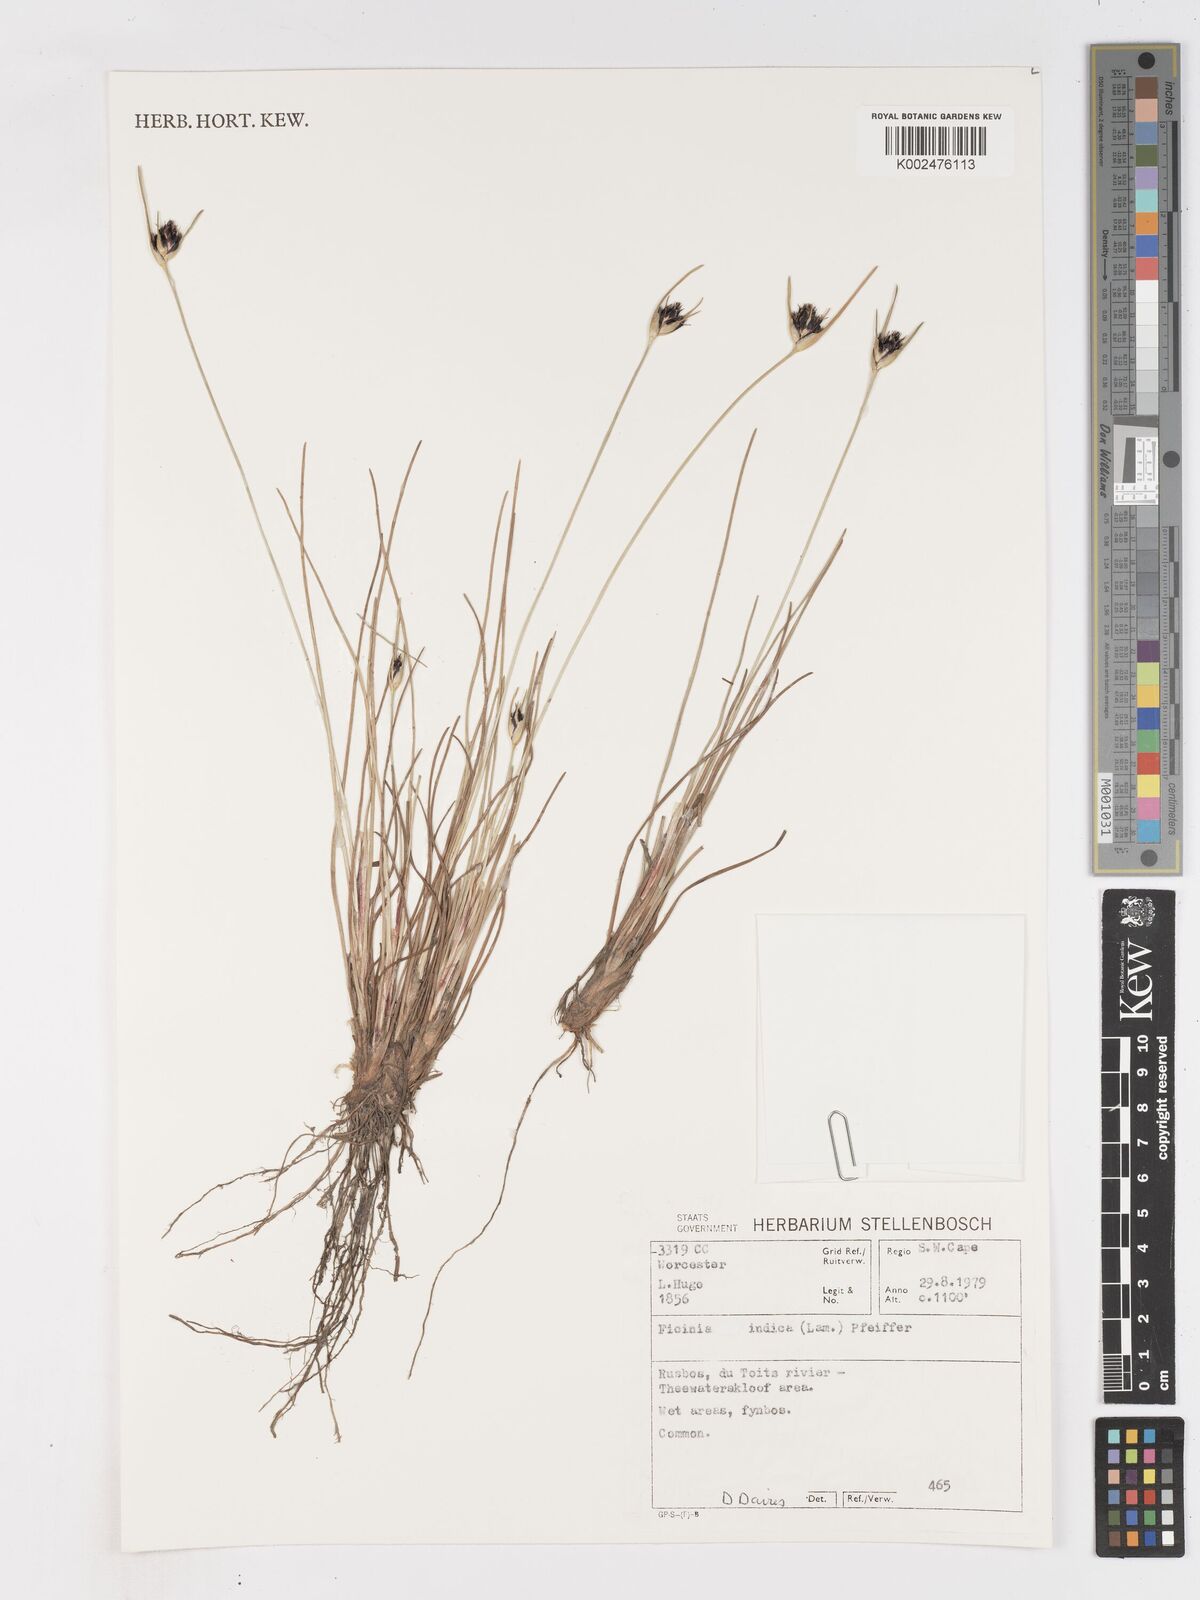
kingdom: Plantae
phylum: Tracheophyta
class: Liliopsida
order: Poales
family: Cyperaceae
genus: Ficinia
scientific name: Ficinia indica
